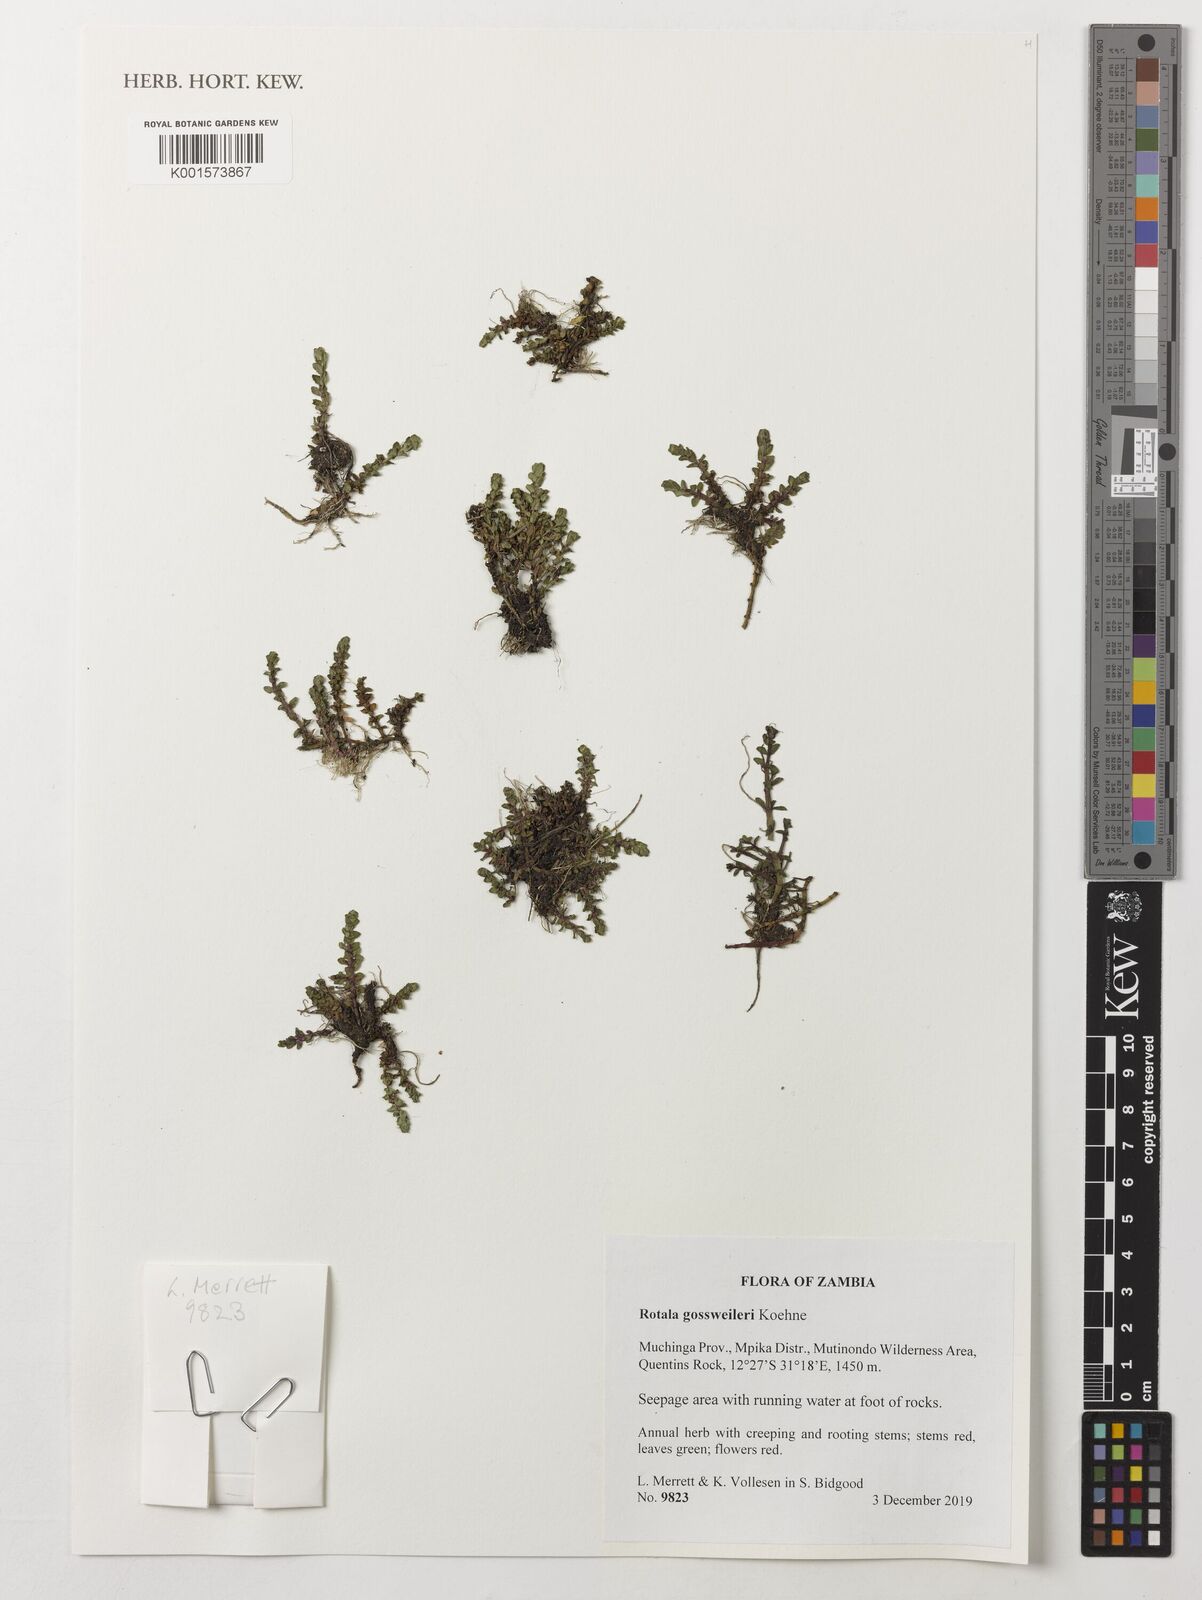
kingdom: Plantae
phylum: Tracheophyta
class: Magnoliopsida
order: Myrtales
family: Lythraceae
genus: Rotala
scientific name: Rotala gossweileri
